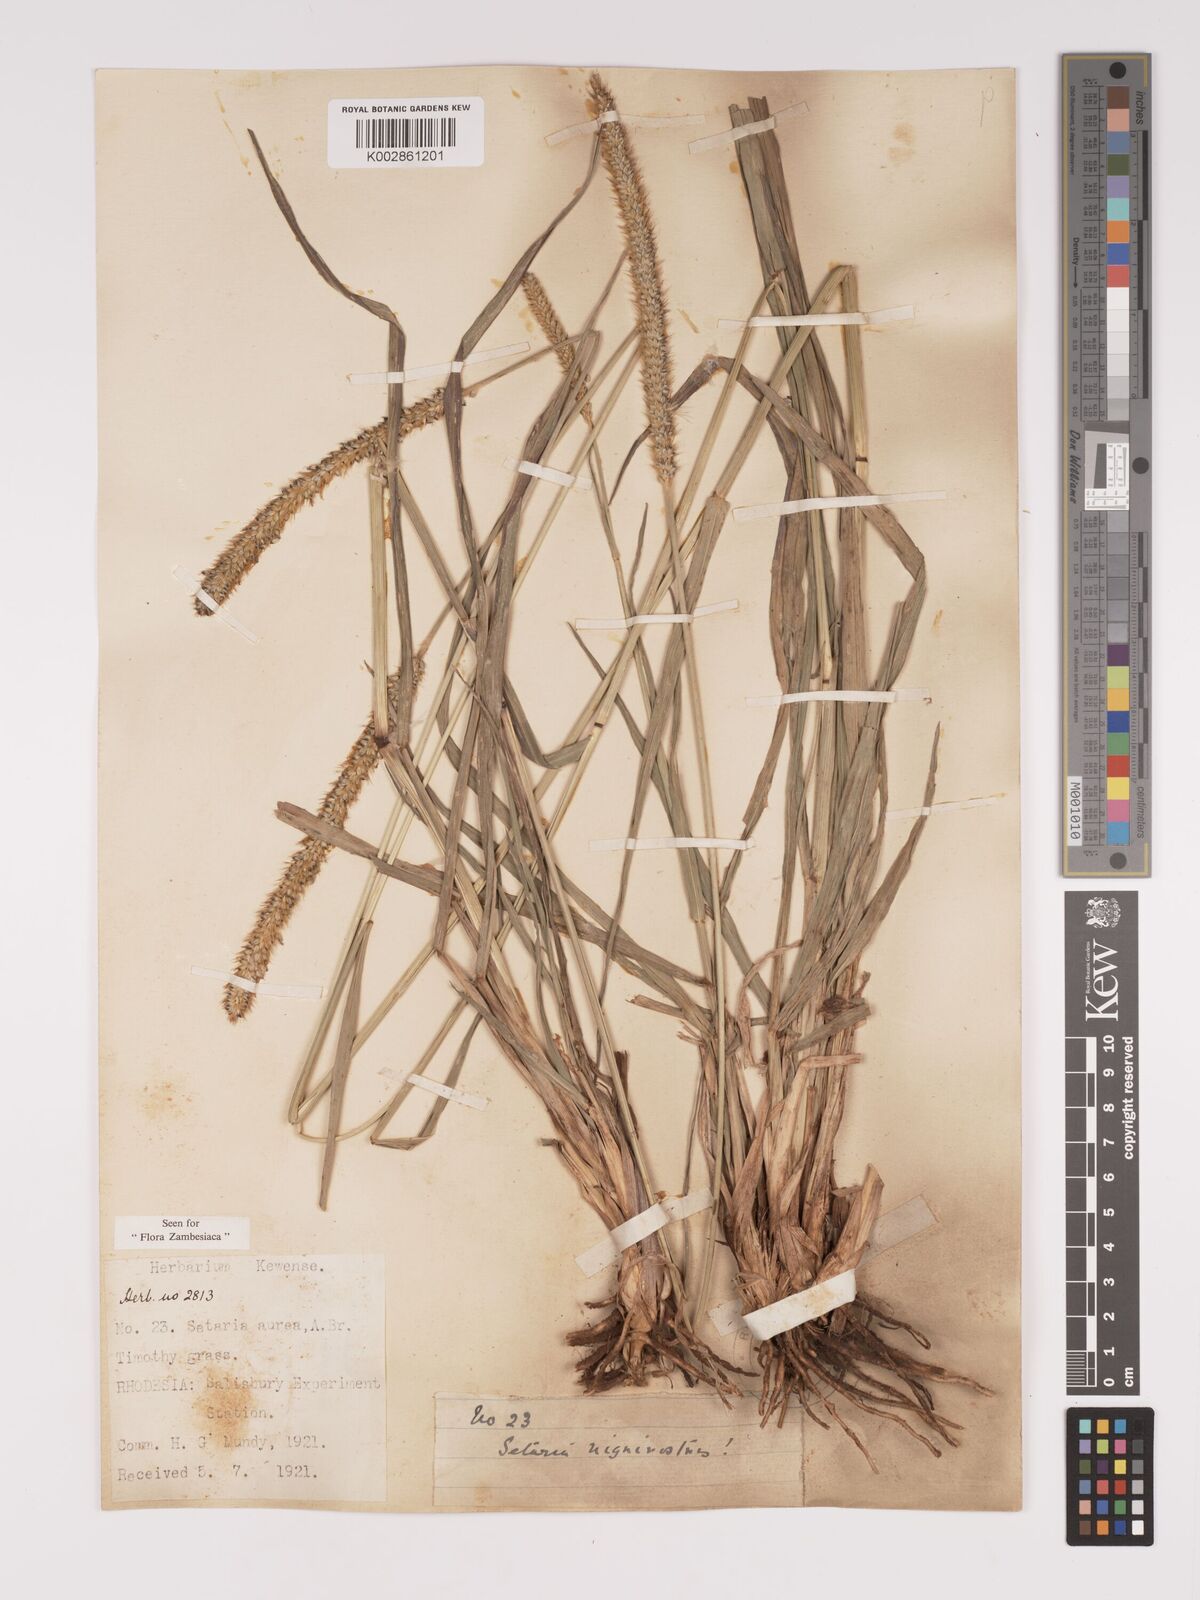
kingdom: Plantae
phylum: Tracheophyta
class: Liliopsida
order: Poales
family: Poaceae
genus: Setaria
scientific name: Setaria sphacelata
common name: African bristlegrass
